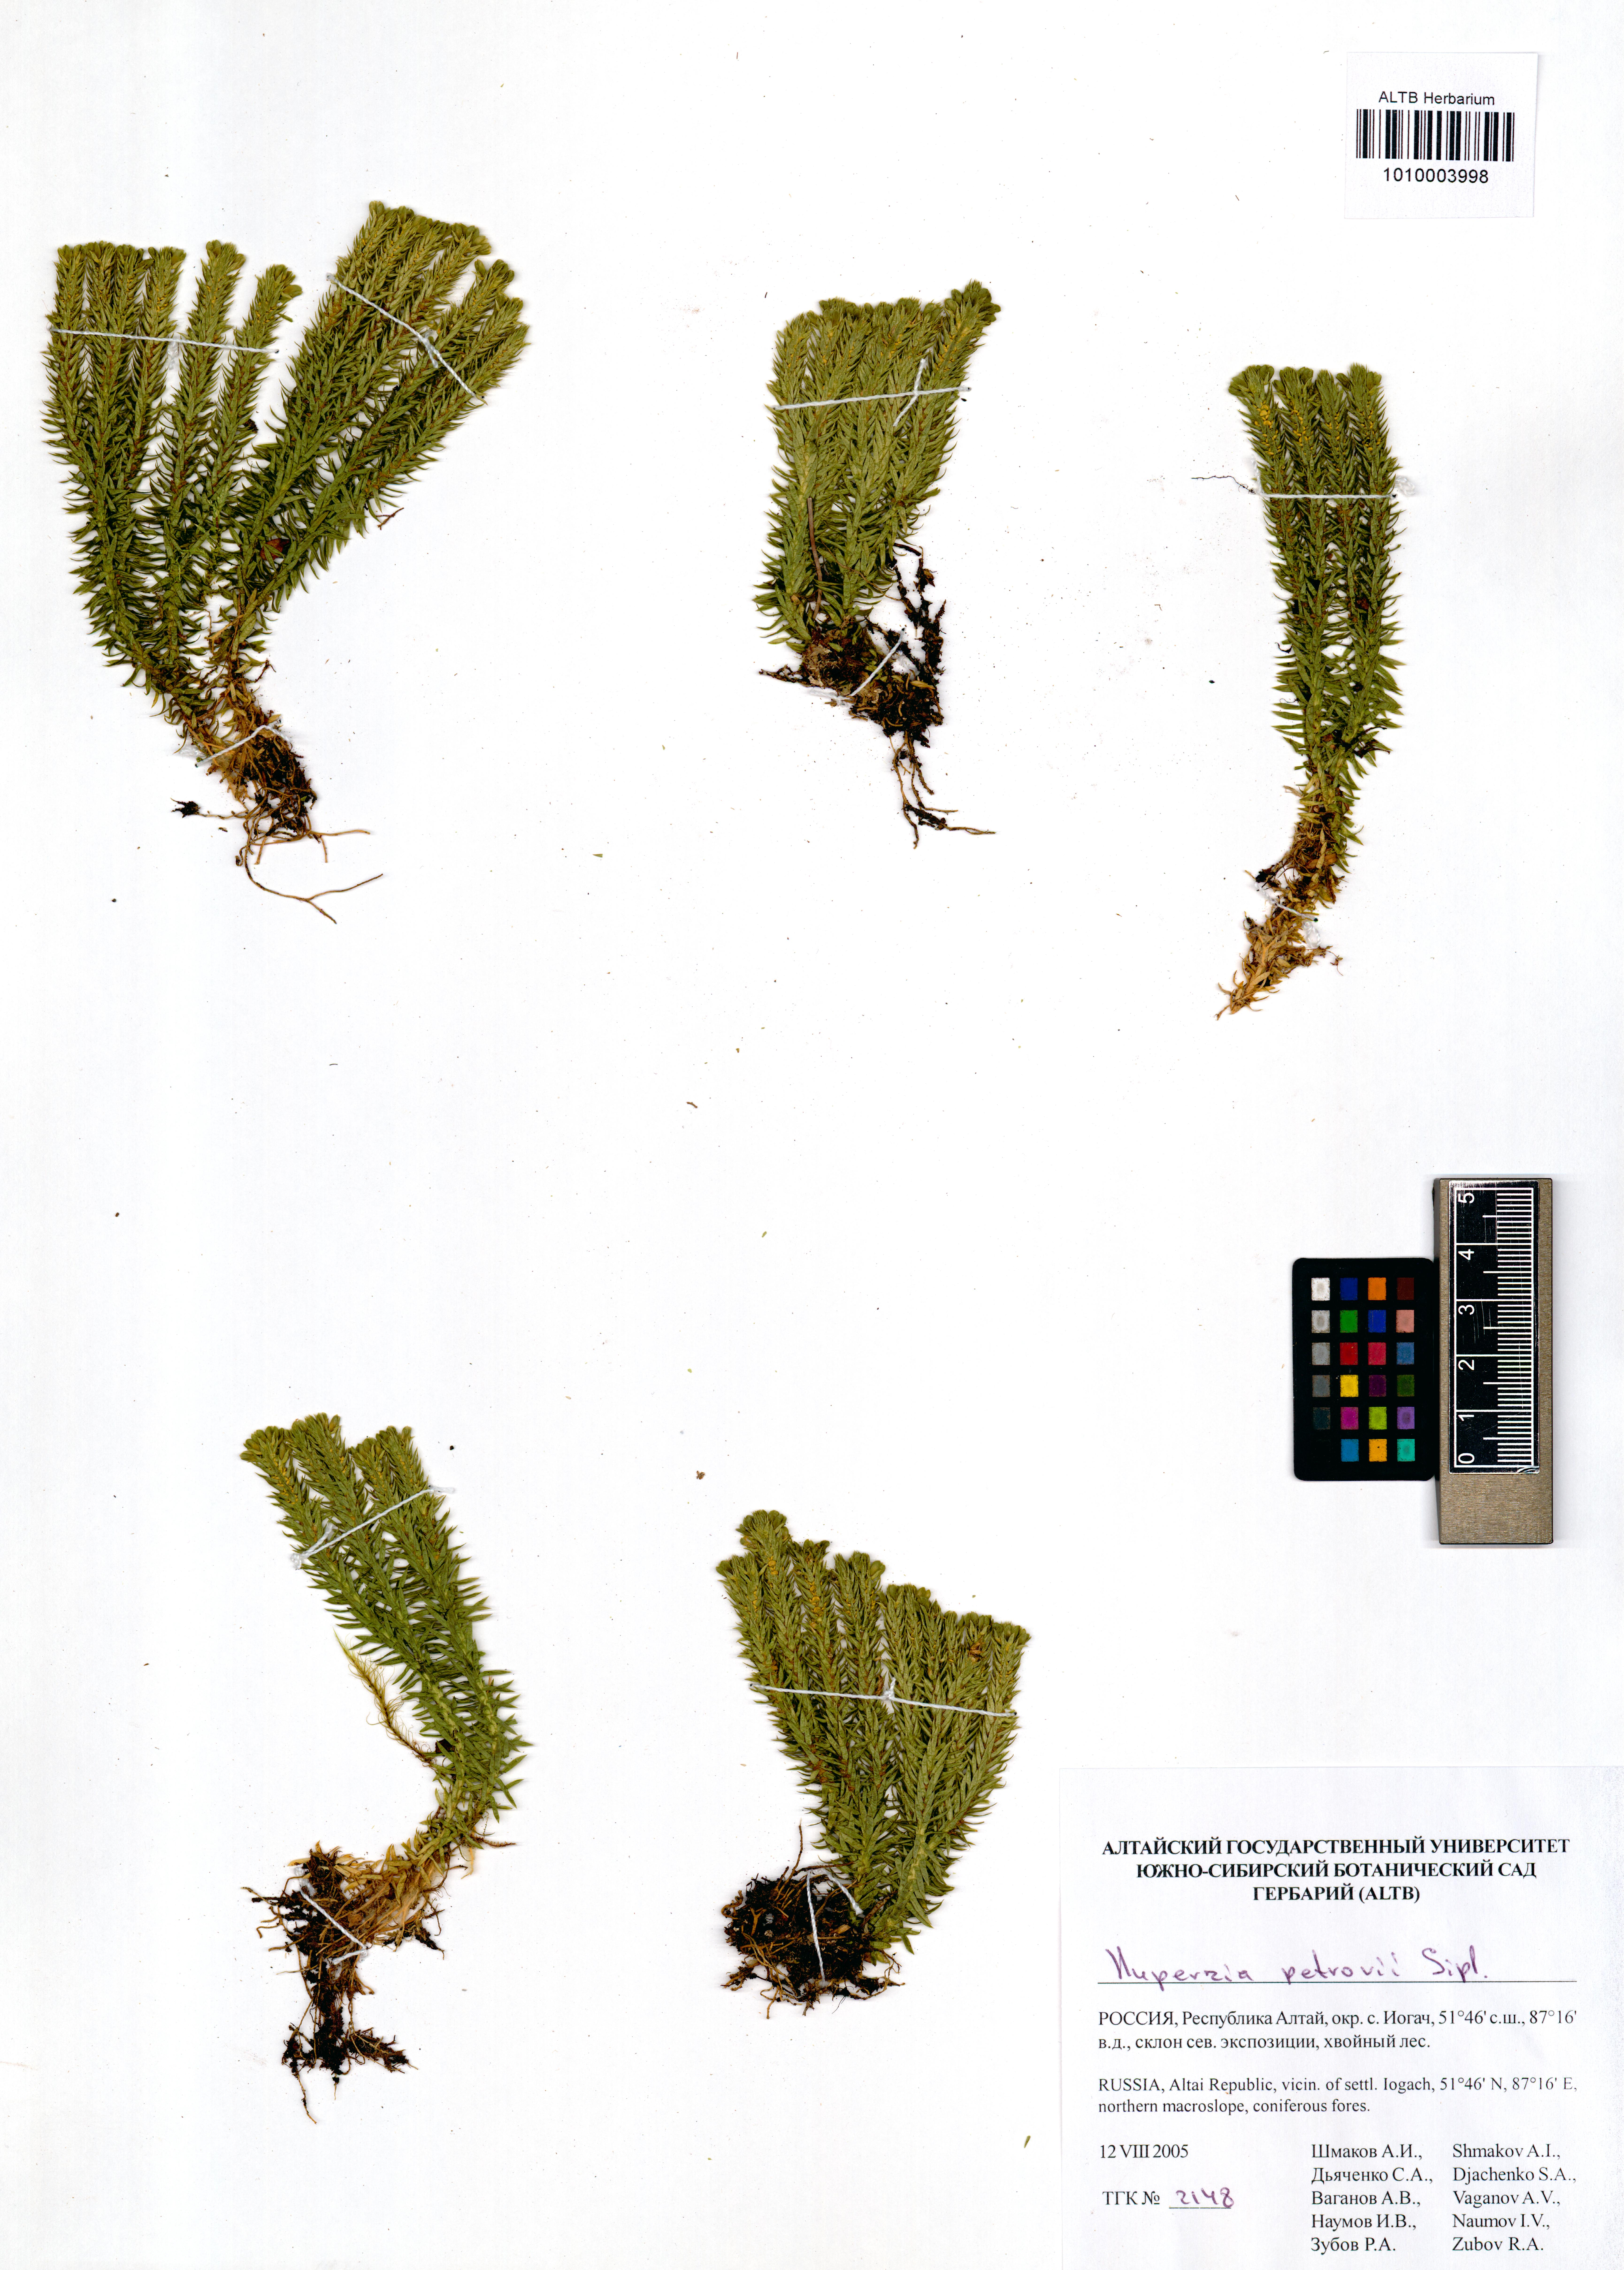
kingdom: Plantae
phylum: Tracheophyta
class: Lycopodiopsida
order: Lycopodiales
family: Lycopodiaceae
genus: Huperzia
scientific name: Huperzia selago
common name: Northern firmoss
